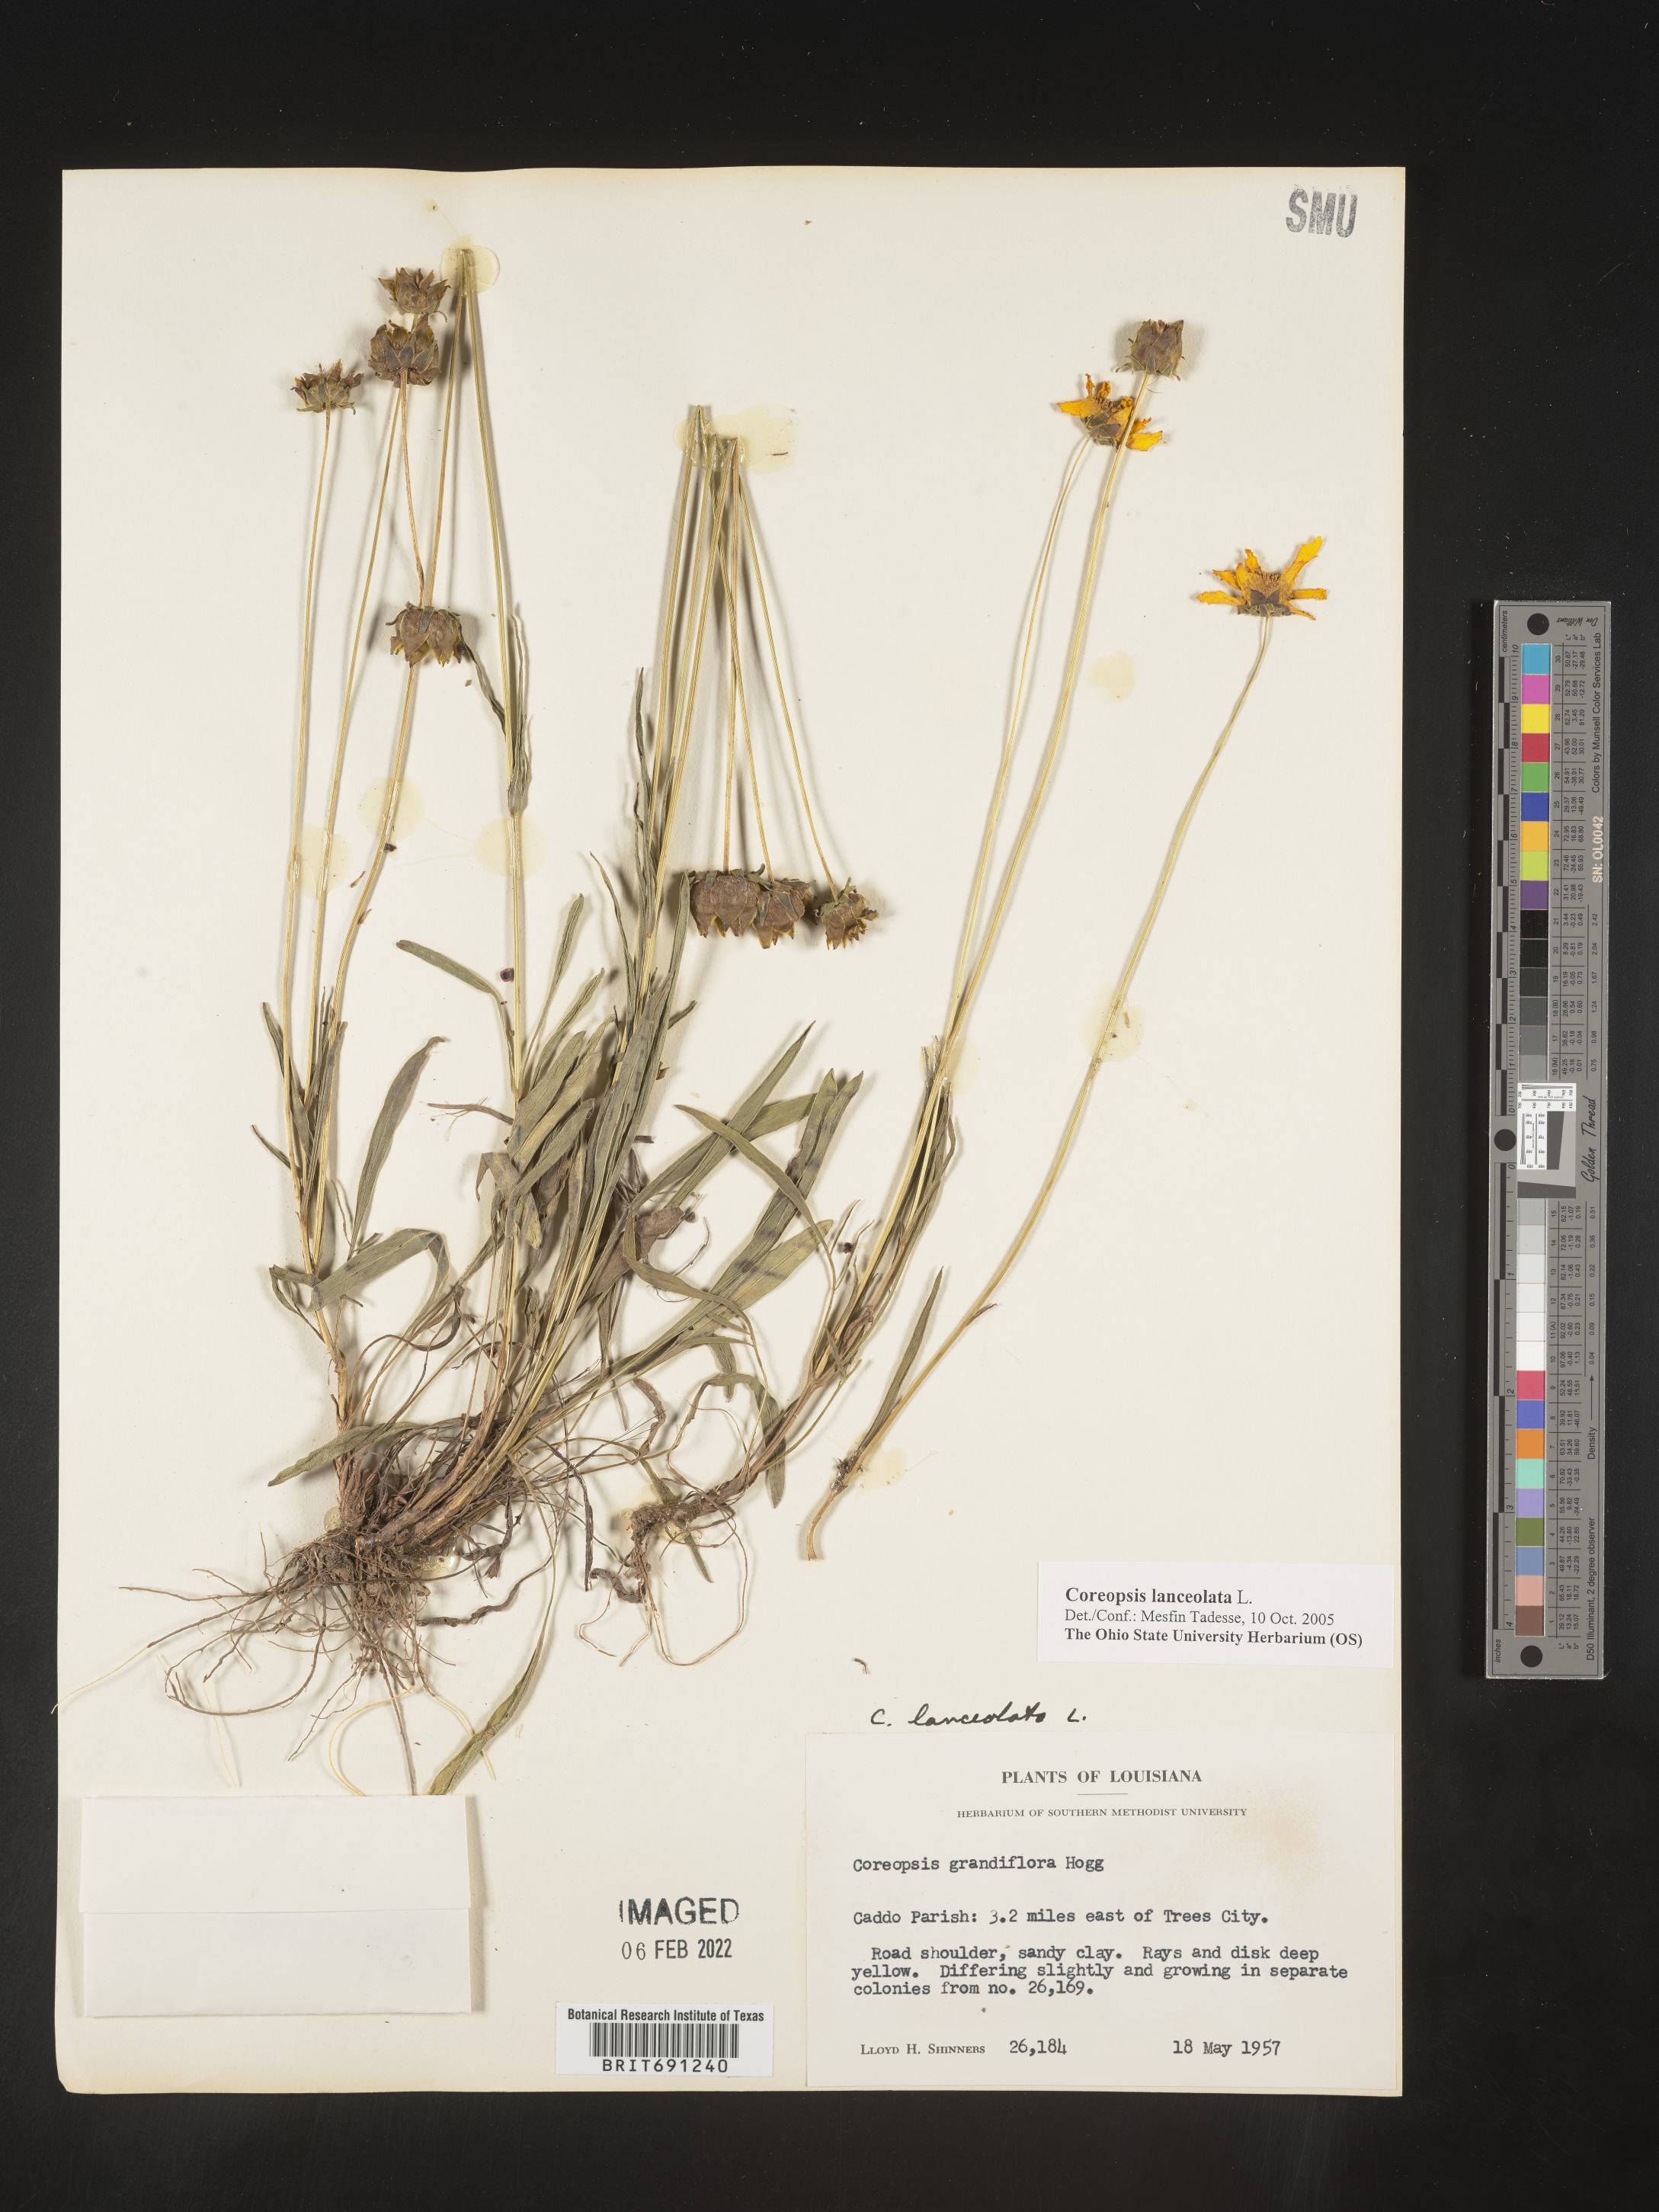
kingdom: Plantae
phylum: Tracheophyta
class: Magnoliopsida
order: Asterales
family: Asteraceae
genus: Coreopsis
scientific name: Coreopsis lanceolata
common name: Garden coreopsis
